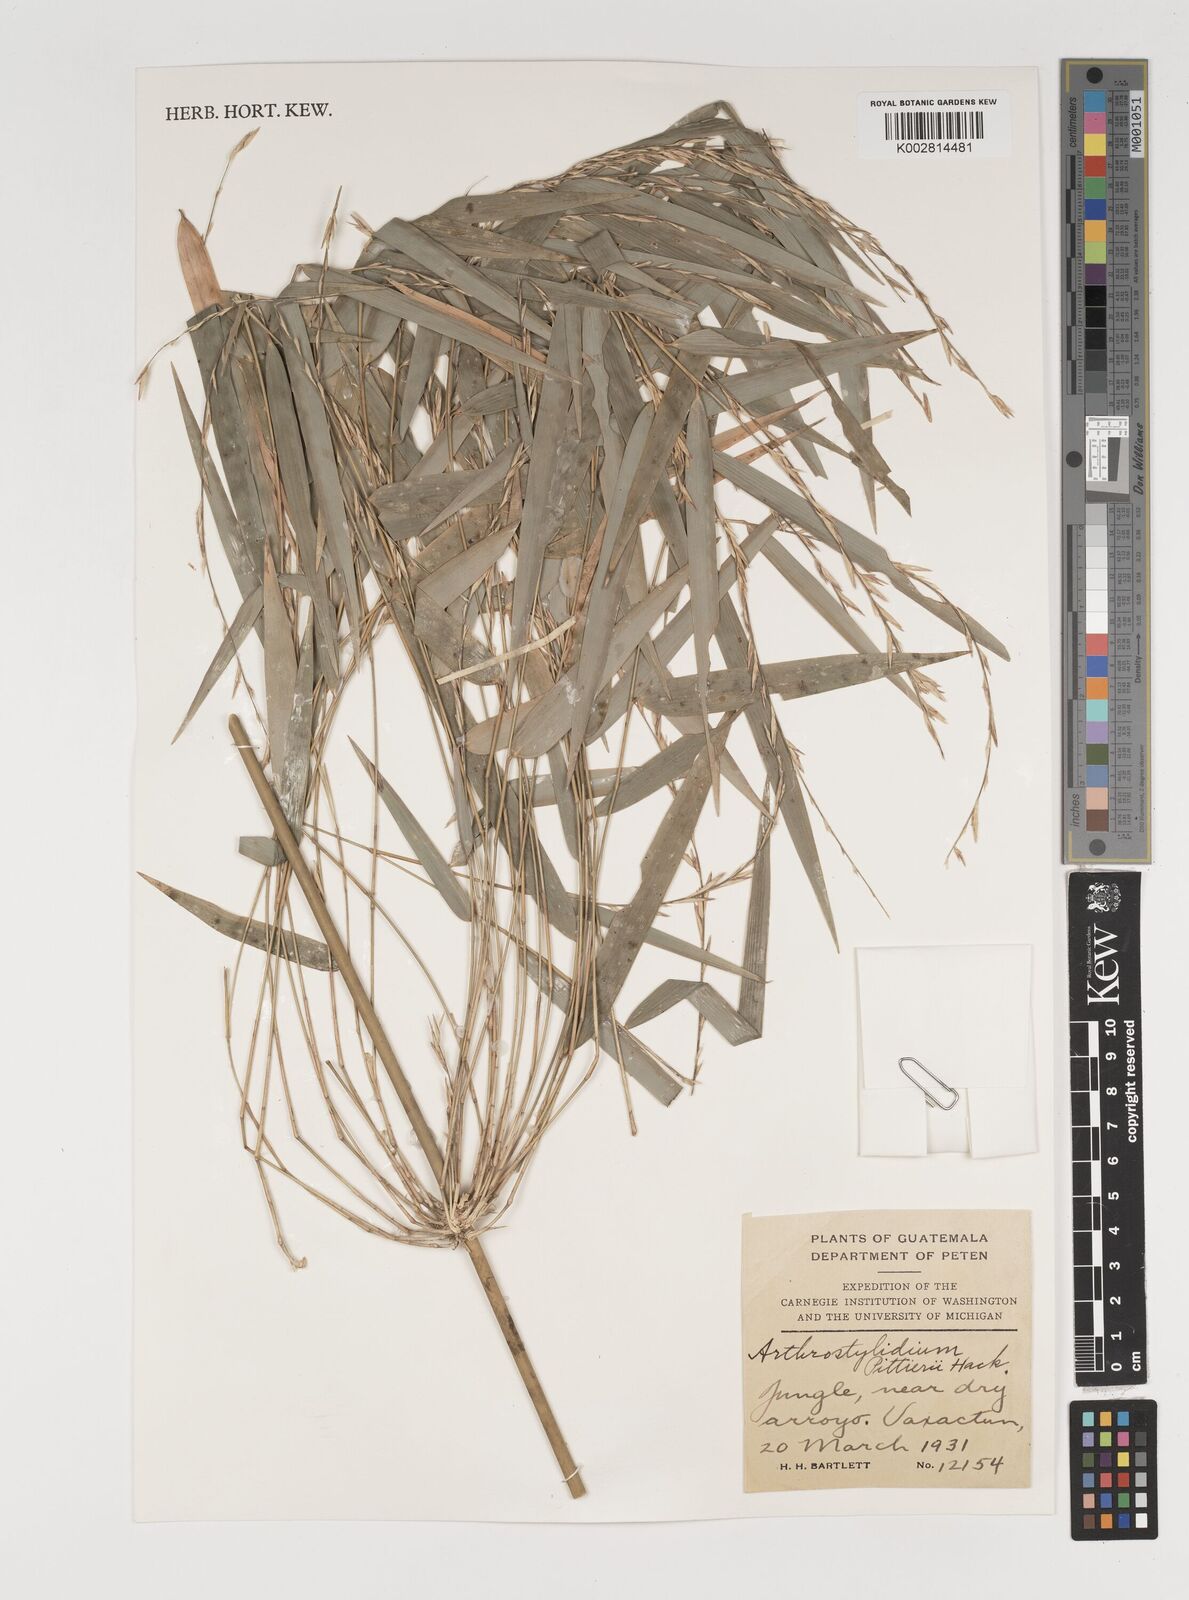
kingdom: Plantae
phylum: Tracheophyta
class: Liliopsida
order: Poales
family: Poaceae
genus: Rhipidocladum
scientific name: Rhipidocladum pittieri
